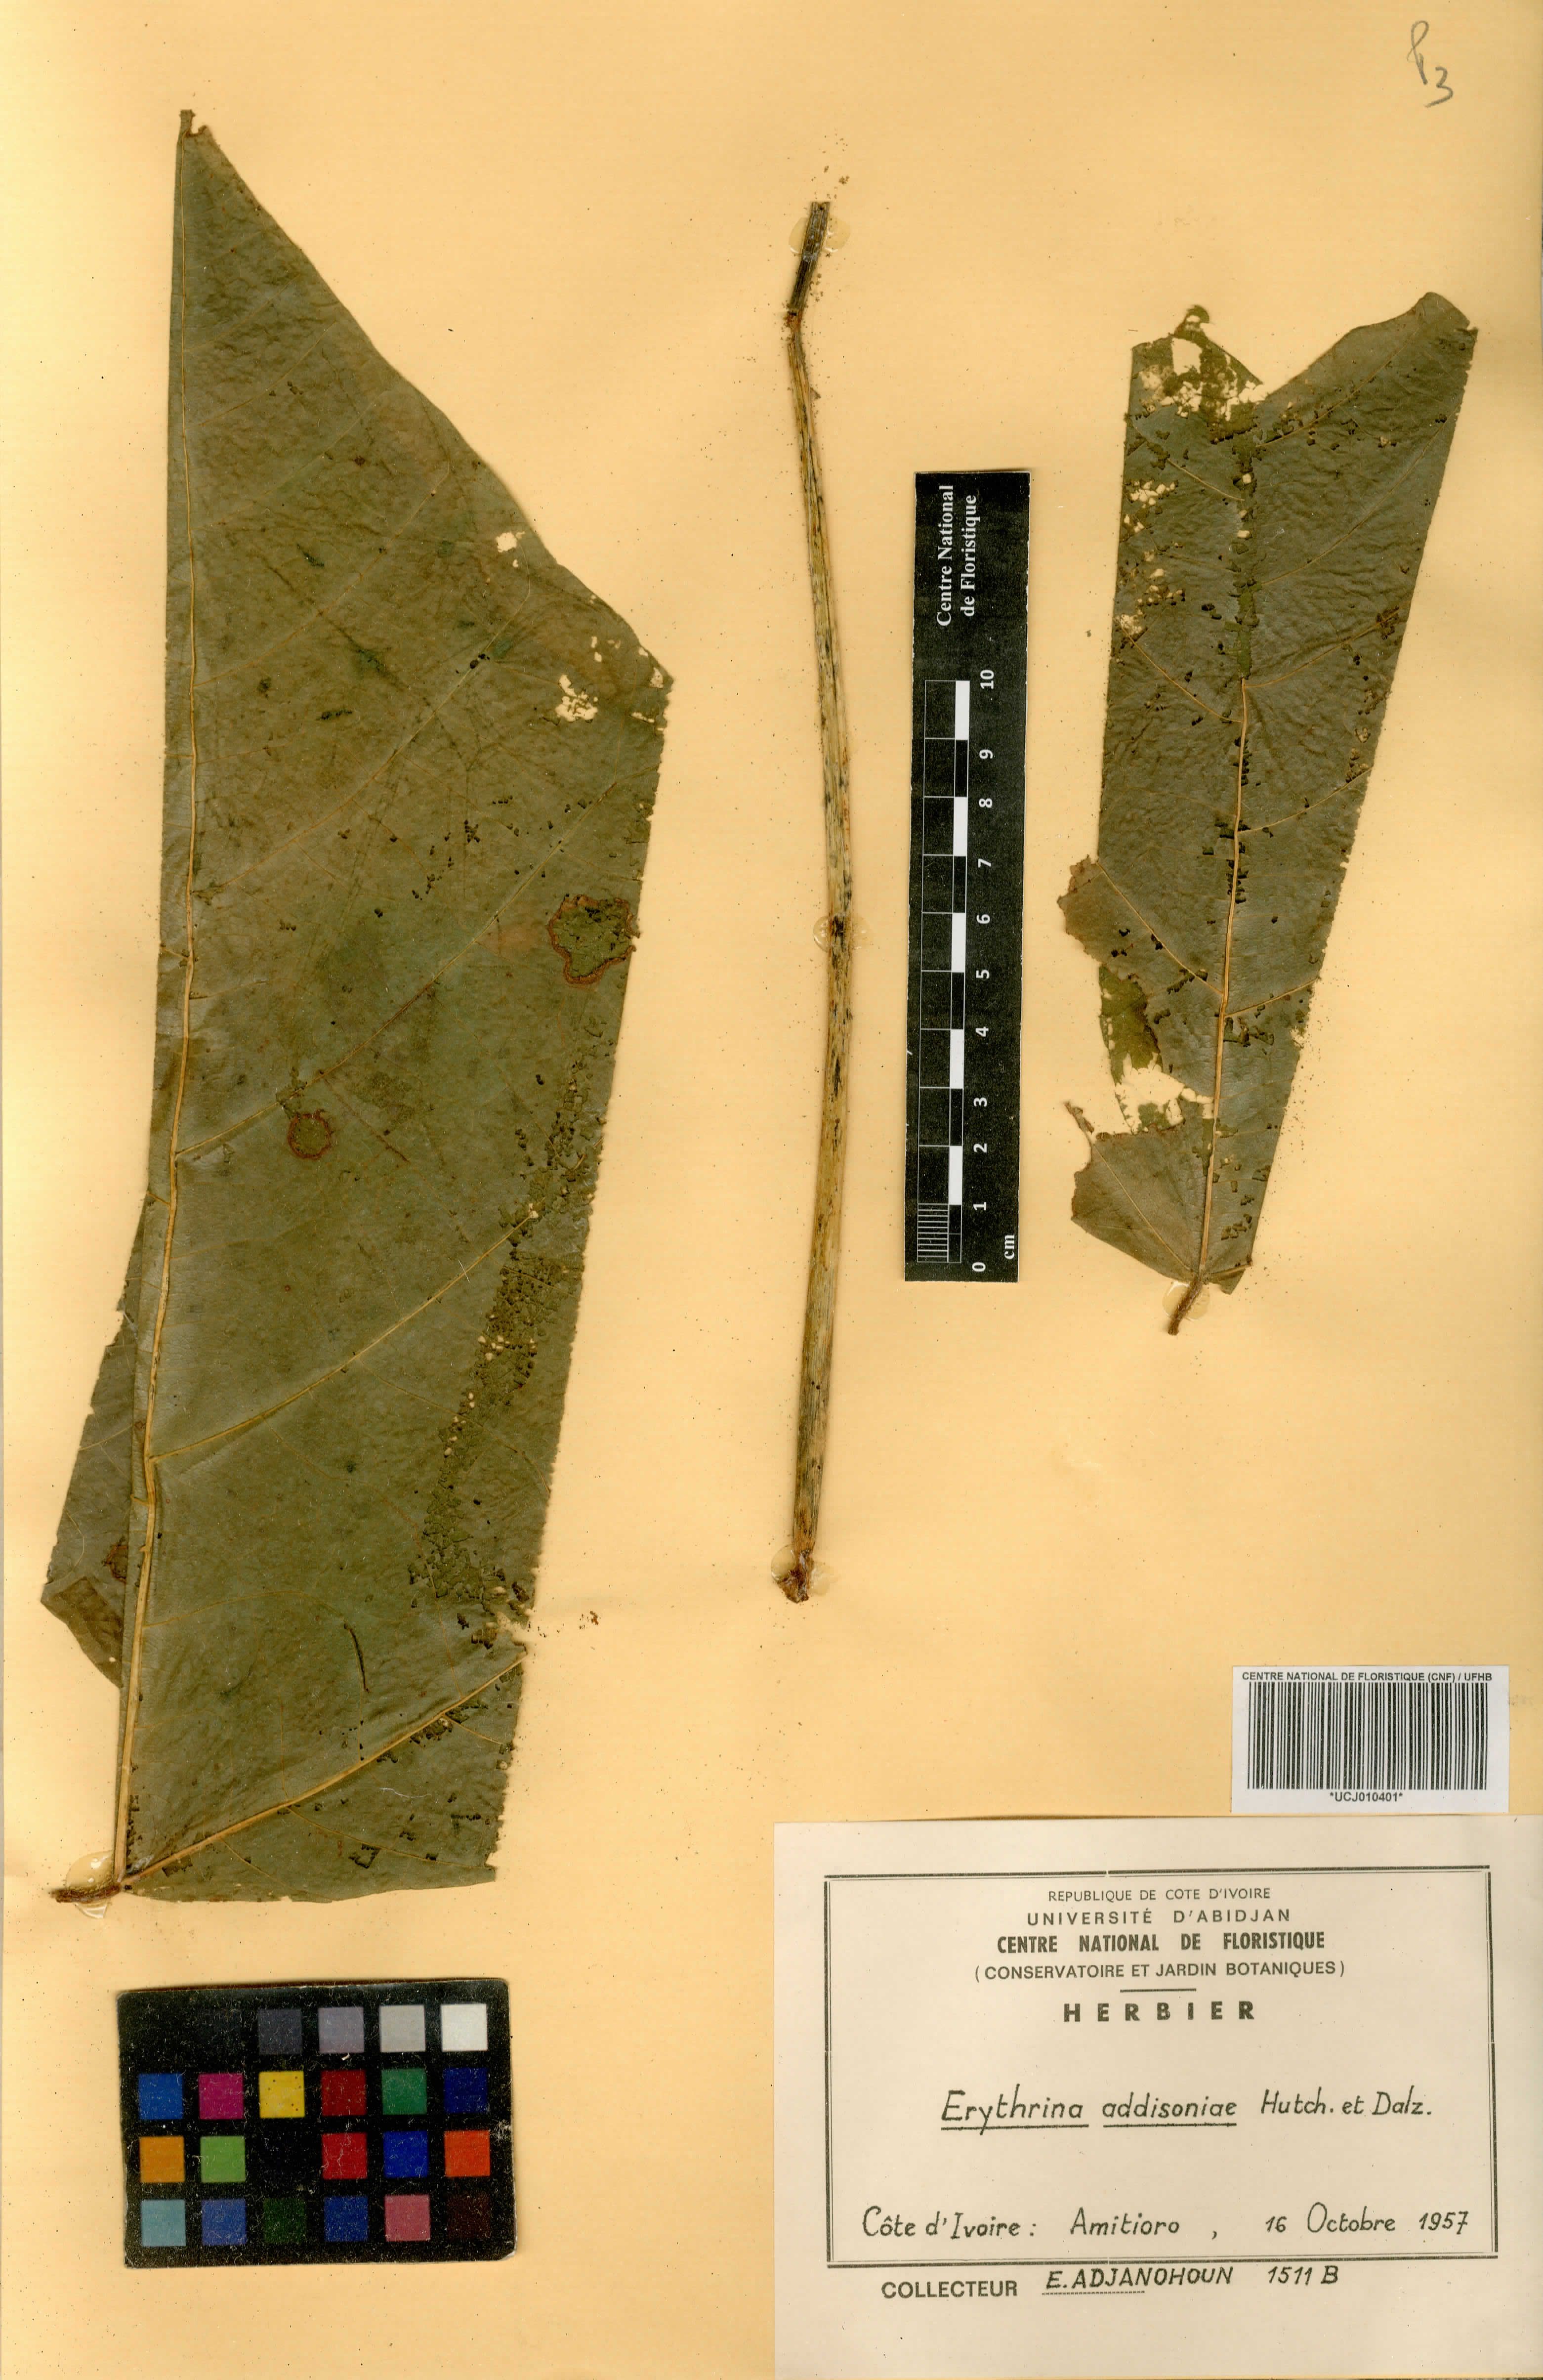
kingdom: Plantae
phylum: Tracheophyta
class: Magnoliopsida
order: Fabales
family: Fabaceae
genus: Erythrina
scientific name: Erythrina addisoniae
